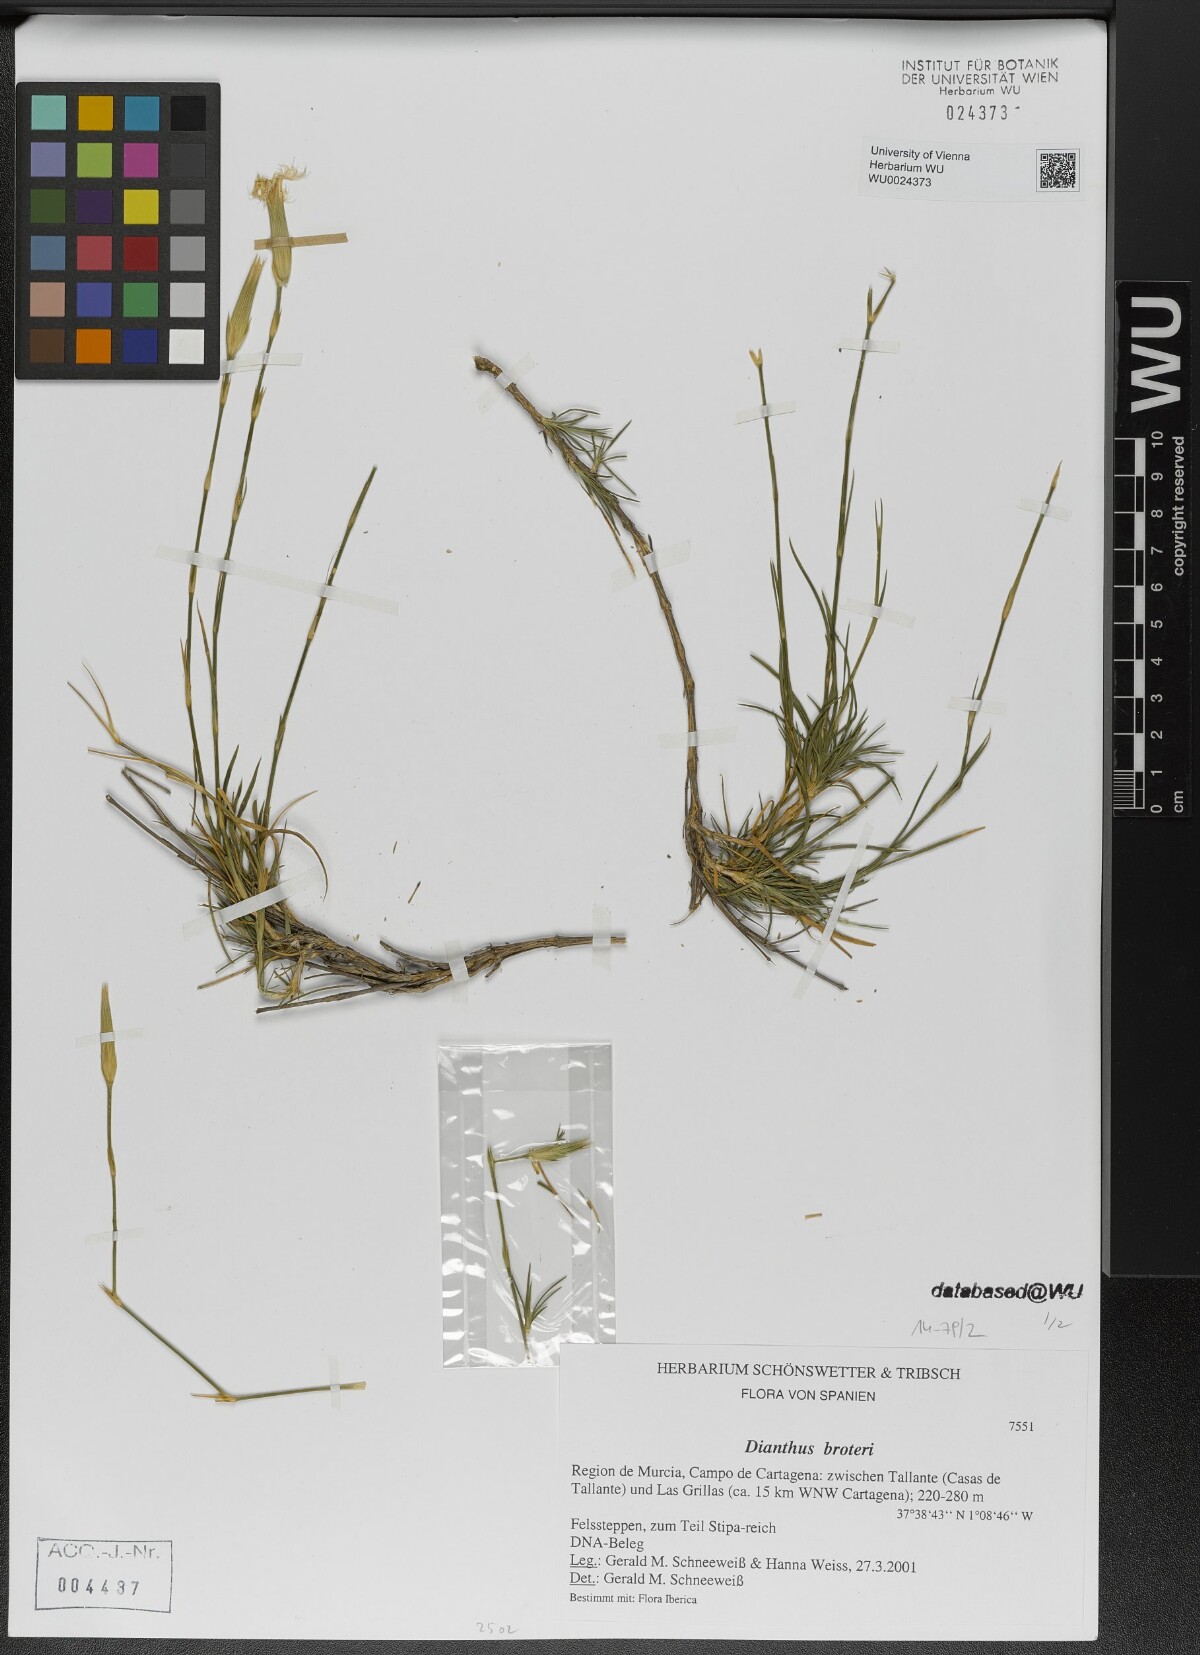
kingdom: Plantae
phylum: Tracheophyta
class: Magnoliopsida
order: Caryophyllales
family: Caryophyllaceae
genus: Dianthus
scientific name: Dianthus broteri
